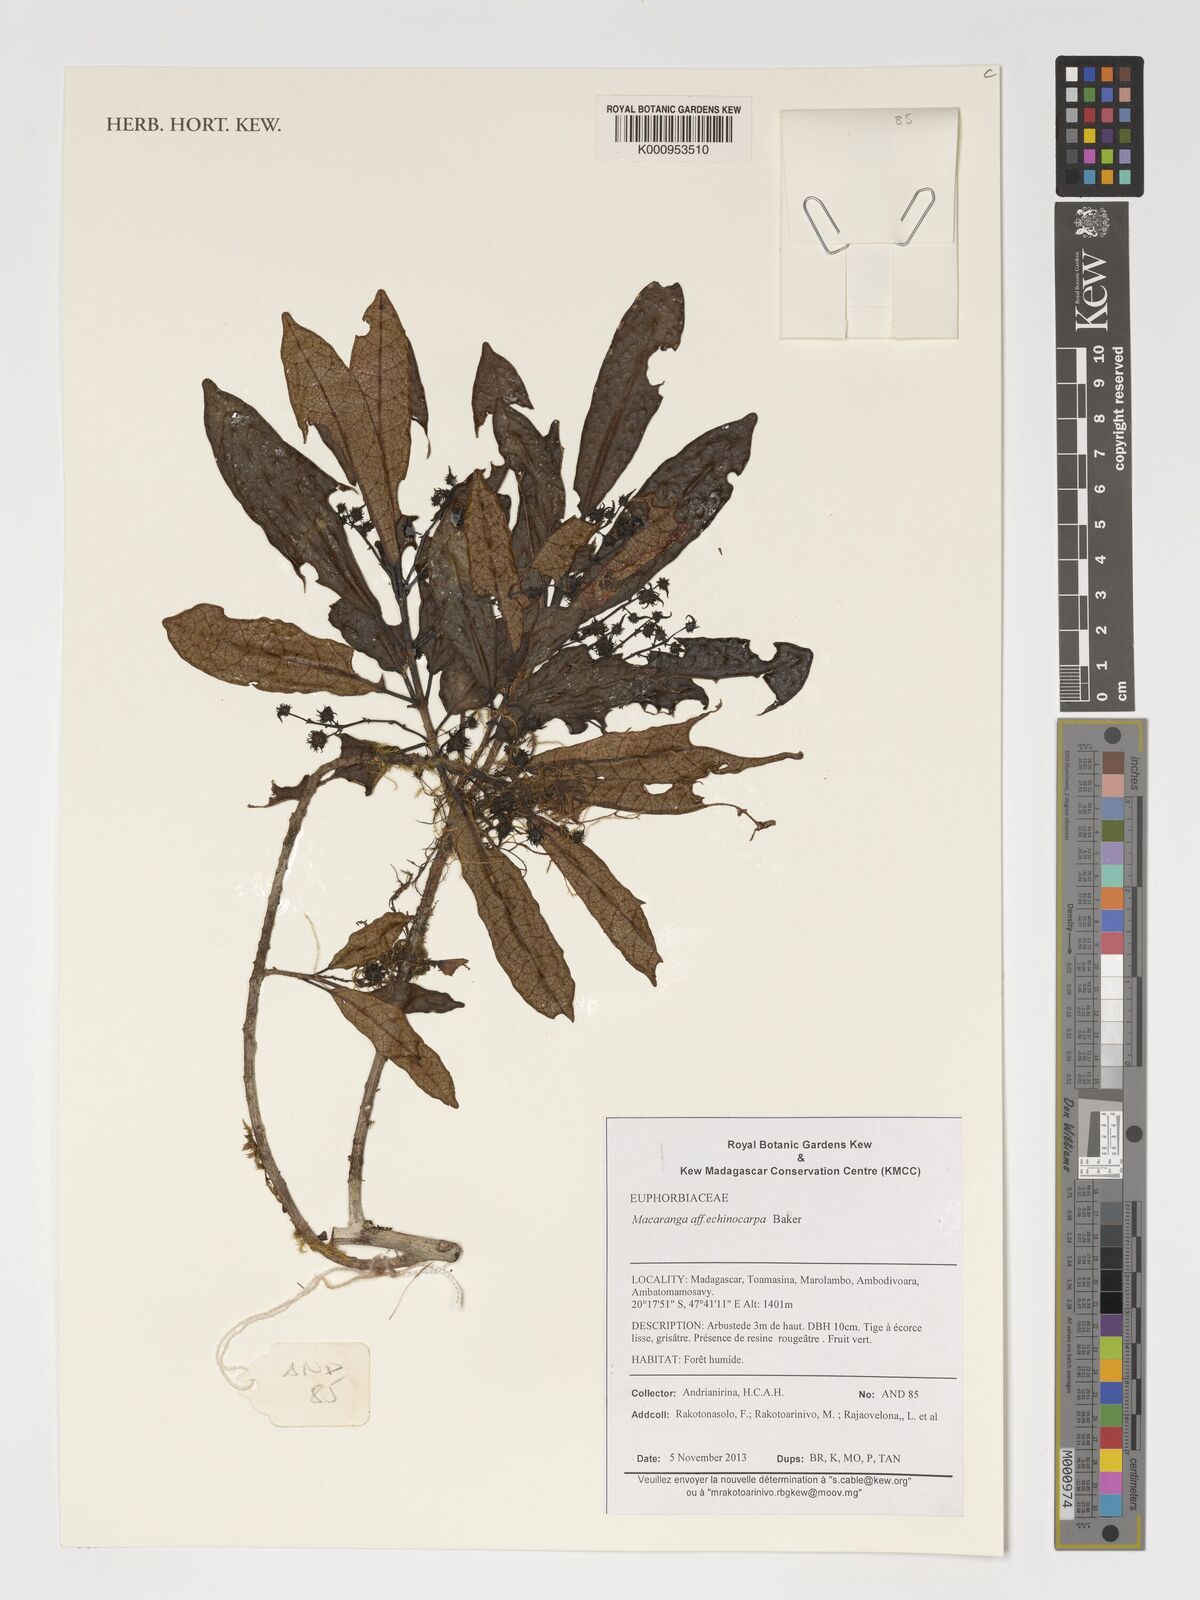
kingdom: Plantae
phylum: Tracheophyta
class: Magnoliopsida
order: Malpighiales
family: Euphorbiaceae
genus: Macaranga
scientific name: Macaranga echinocarpa
